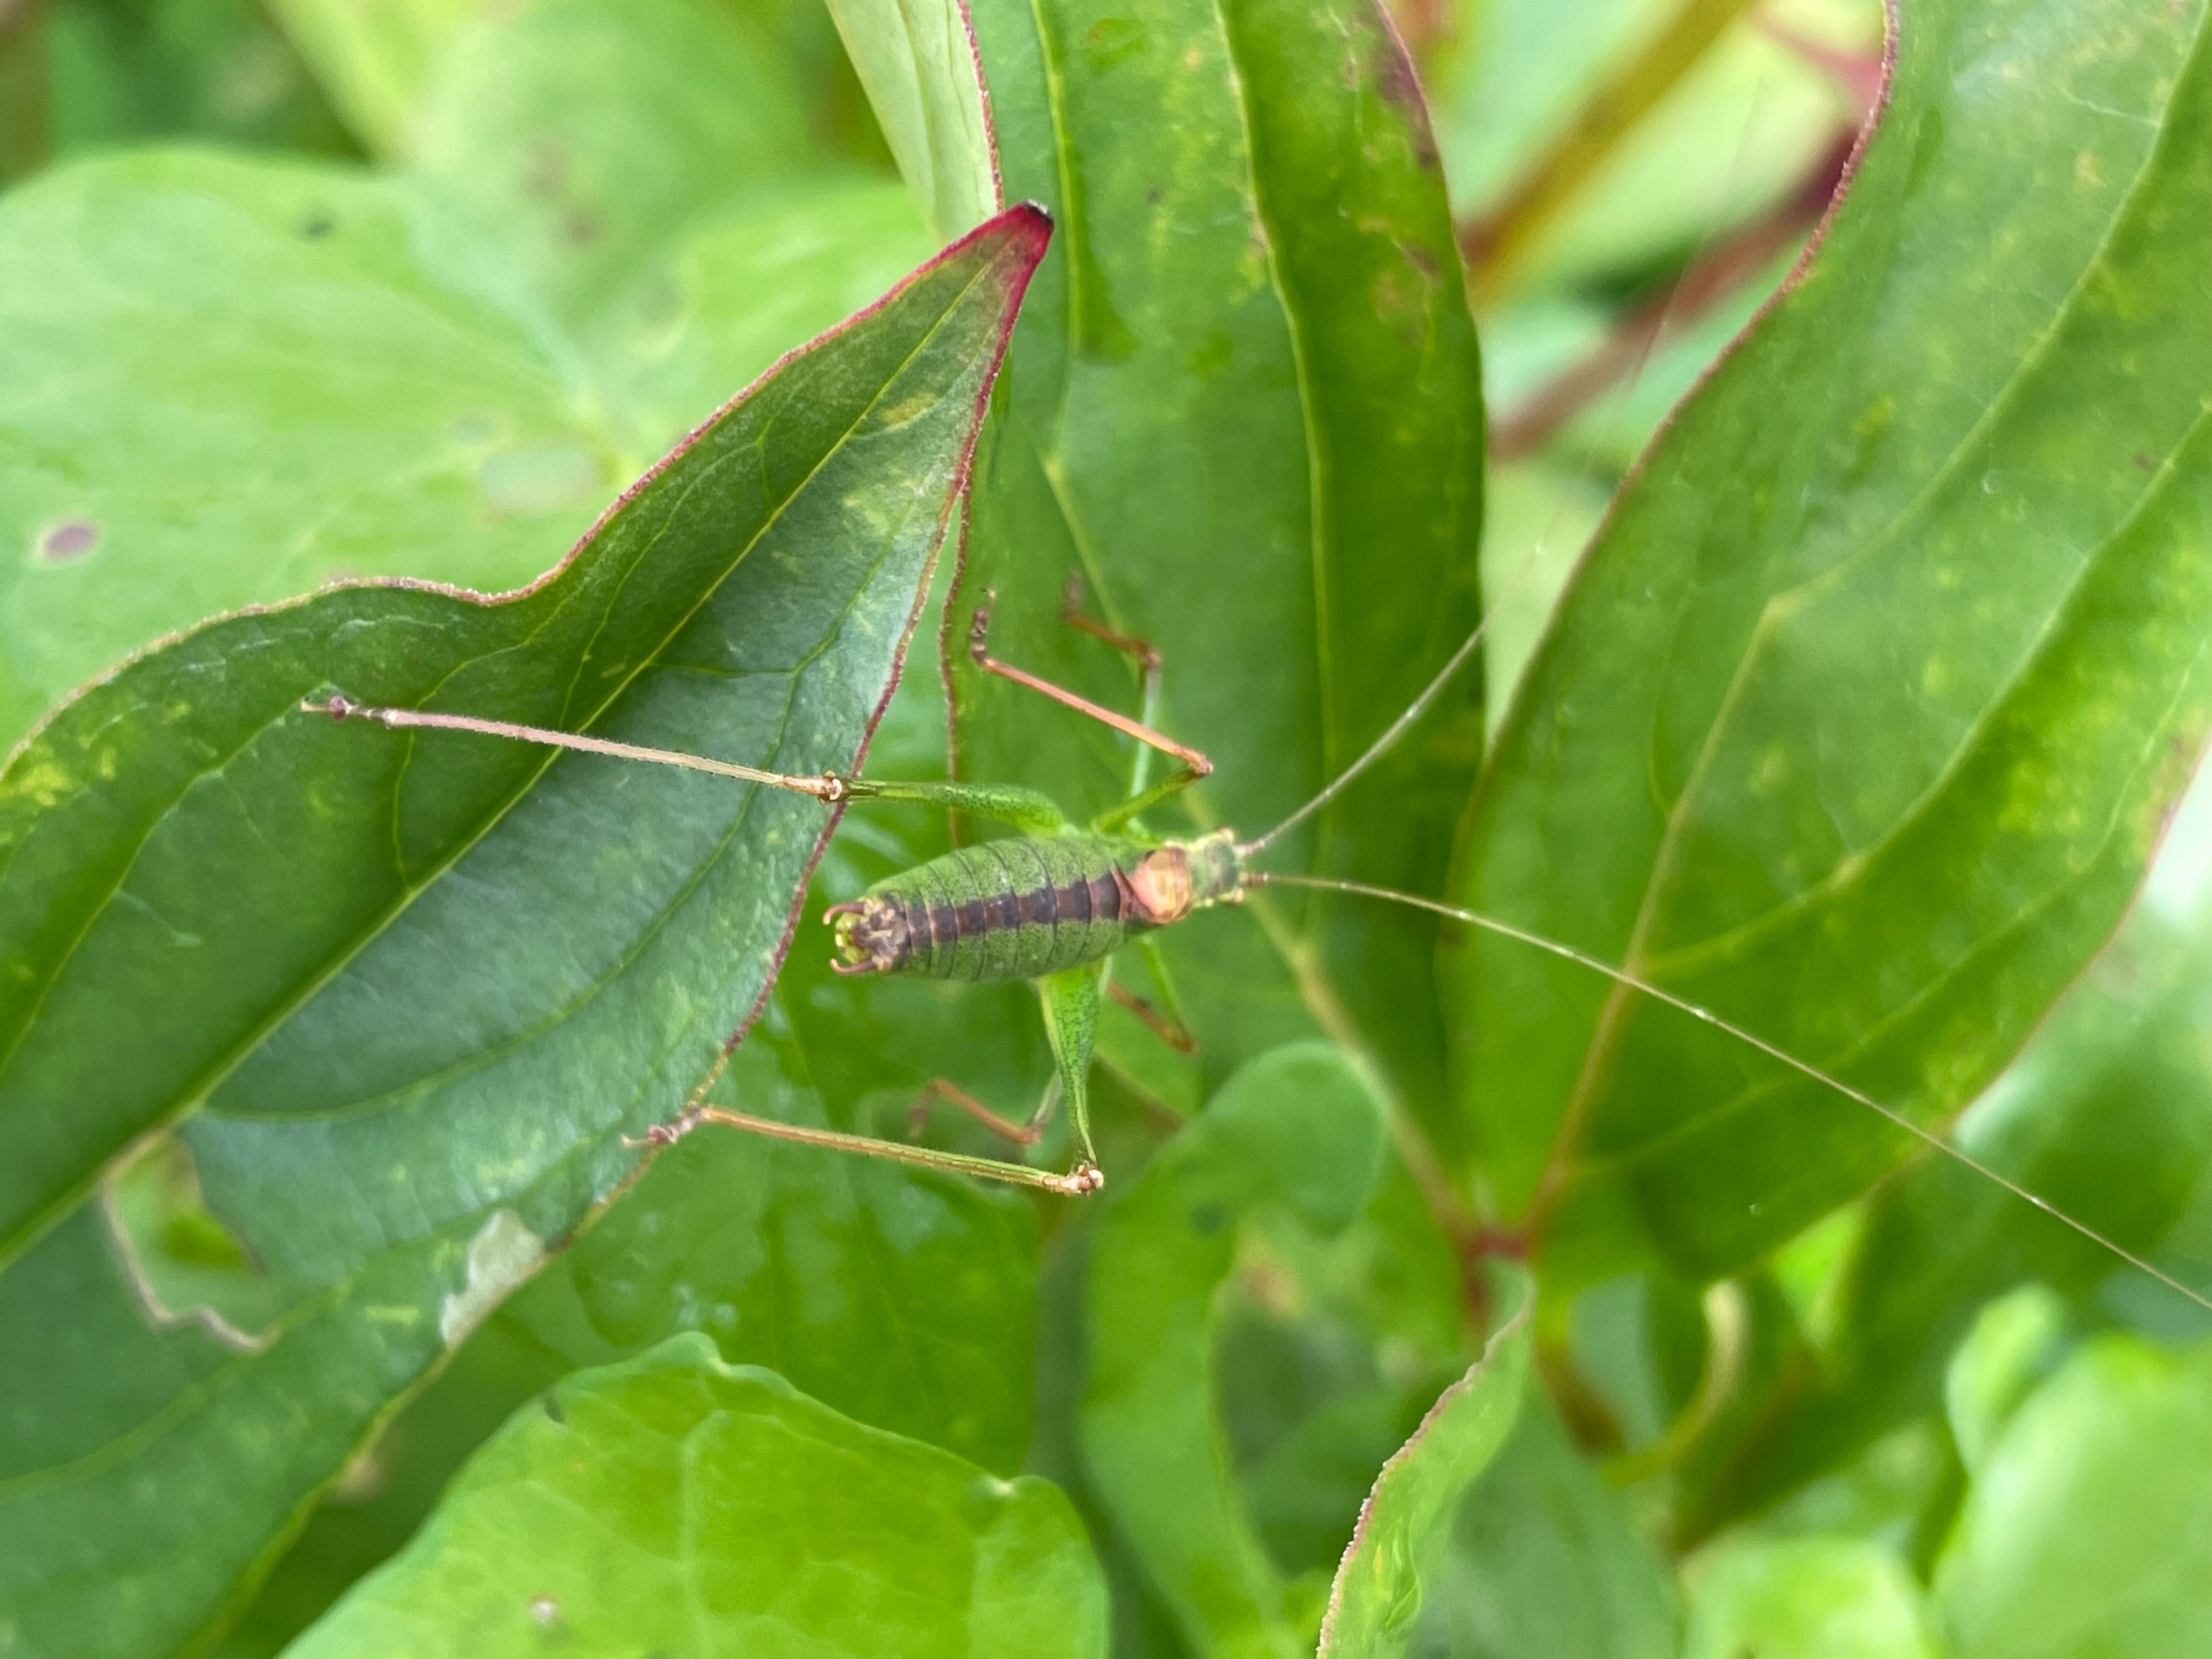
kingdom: Animalia
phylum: Arthropoda
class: Insecta
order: Orthoptera
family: Tettigoniidae
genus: Leptophyes
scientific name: Leptophyes punctatissima
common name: Krumknivgræshoppe
